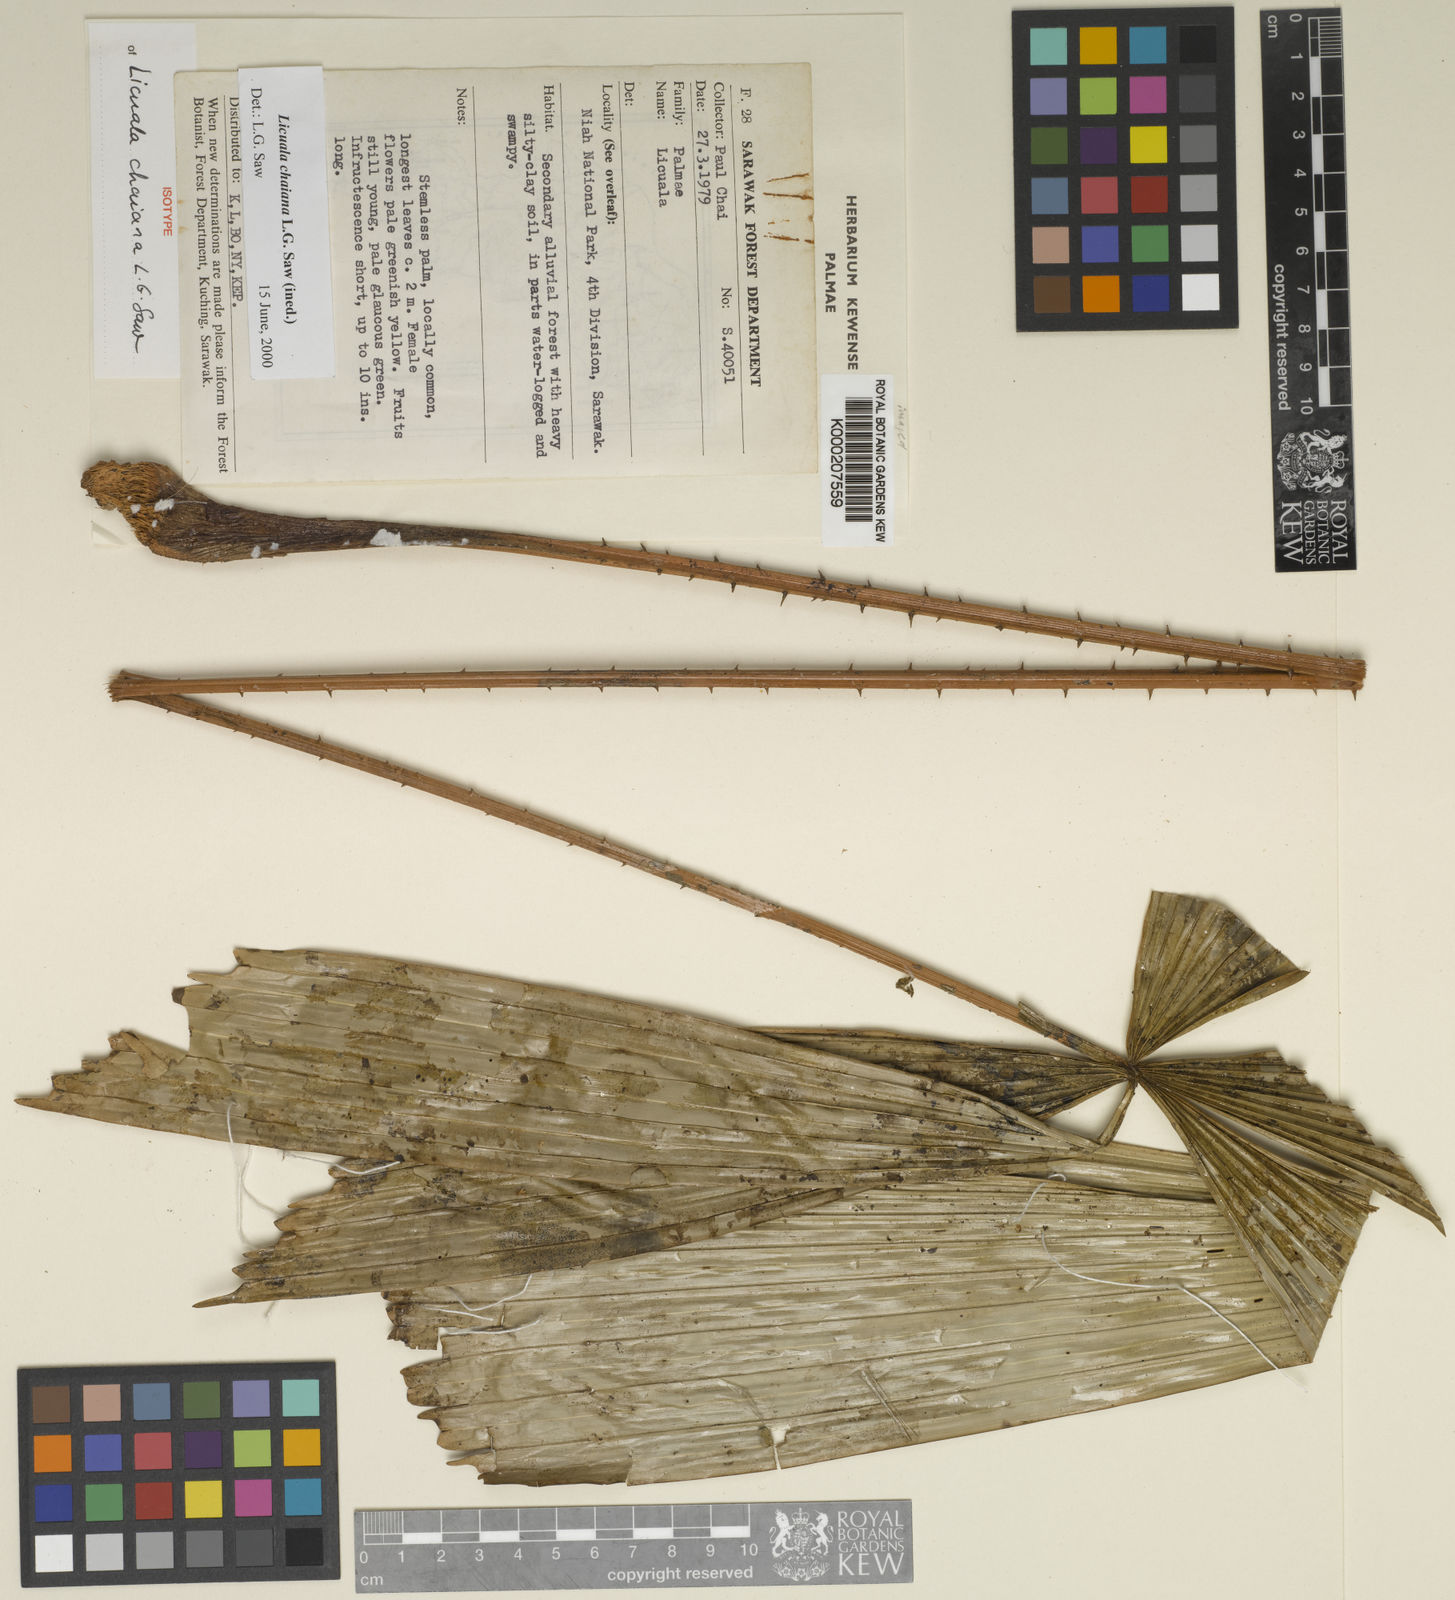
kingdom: Plantae
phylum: Tracheophyta
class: Liliopsida
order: Arecales
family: Arecaceae
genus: Licuala
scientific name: Licuala chaiana
